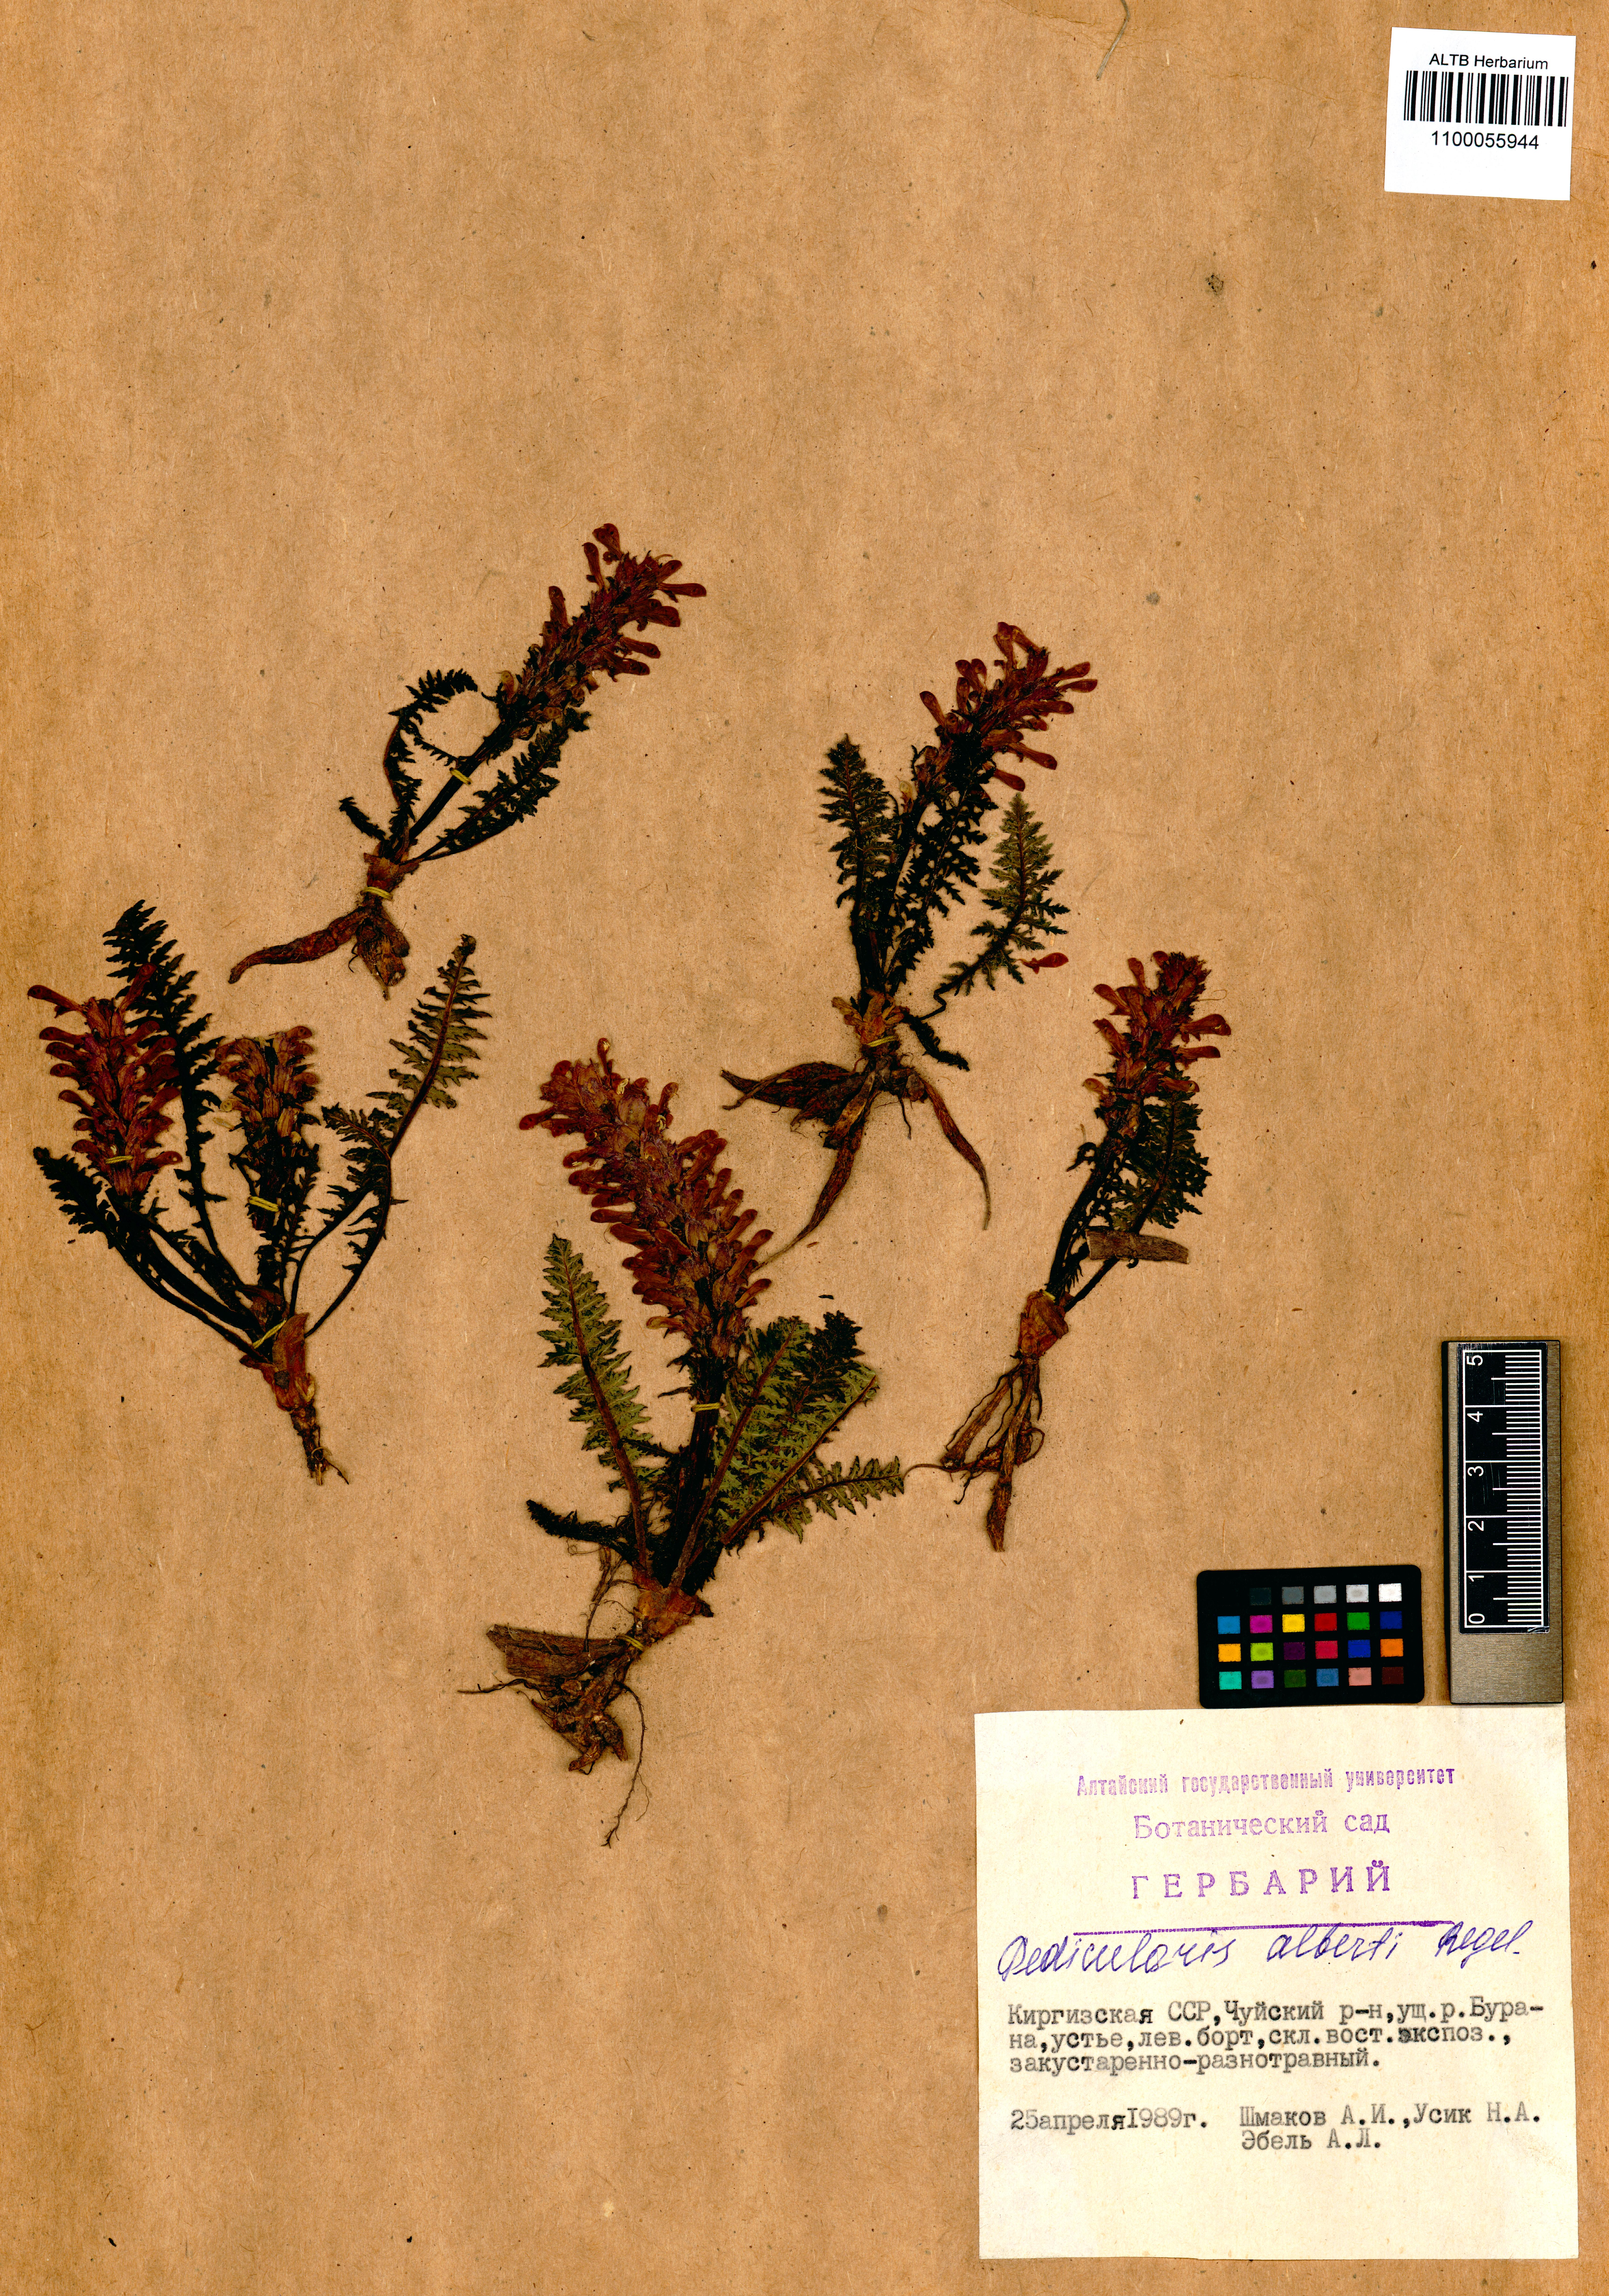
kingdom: Plantae
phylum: Tracheophyta
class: Magnoliopsida
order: Lamiales
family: Orobanchaceae
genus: Pedicularis
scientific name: Pedicularis alberti
